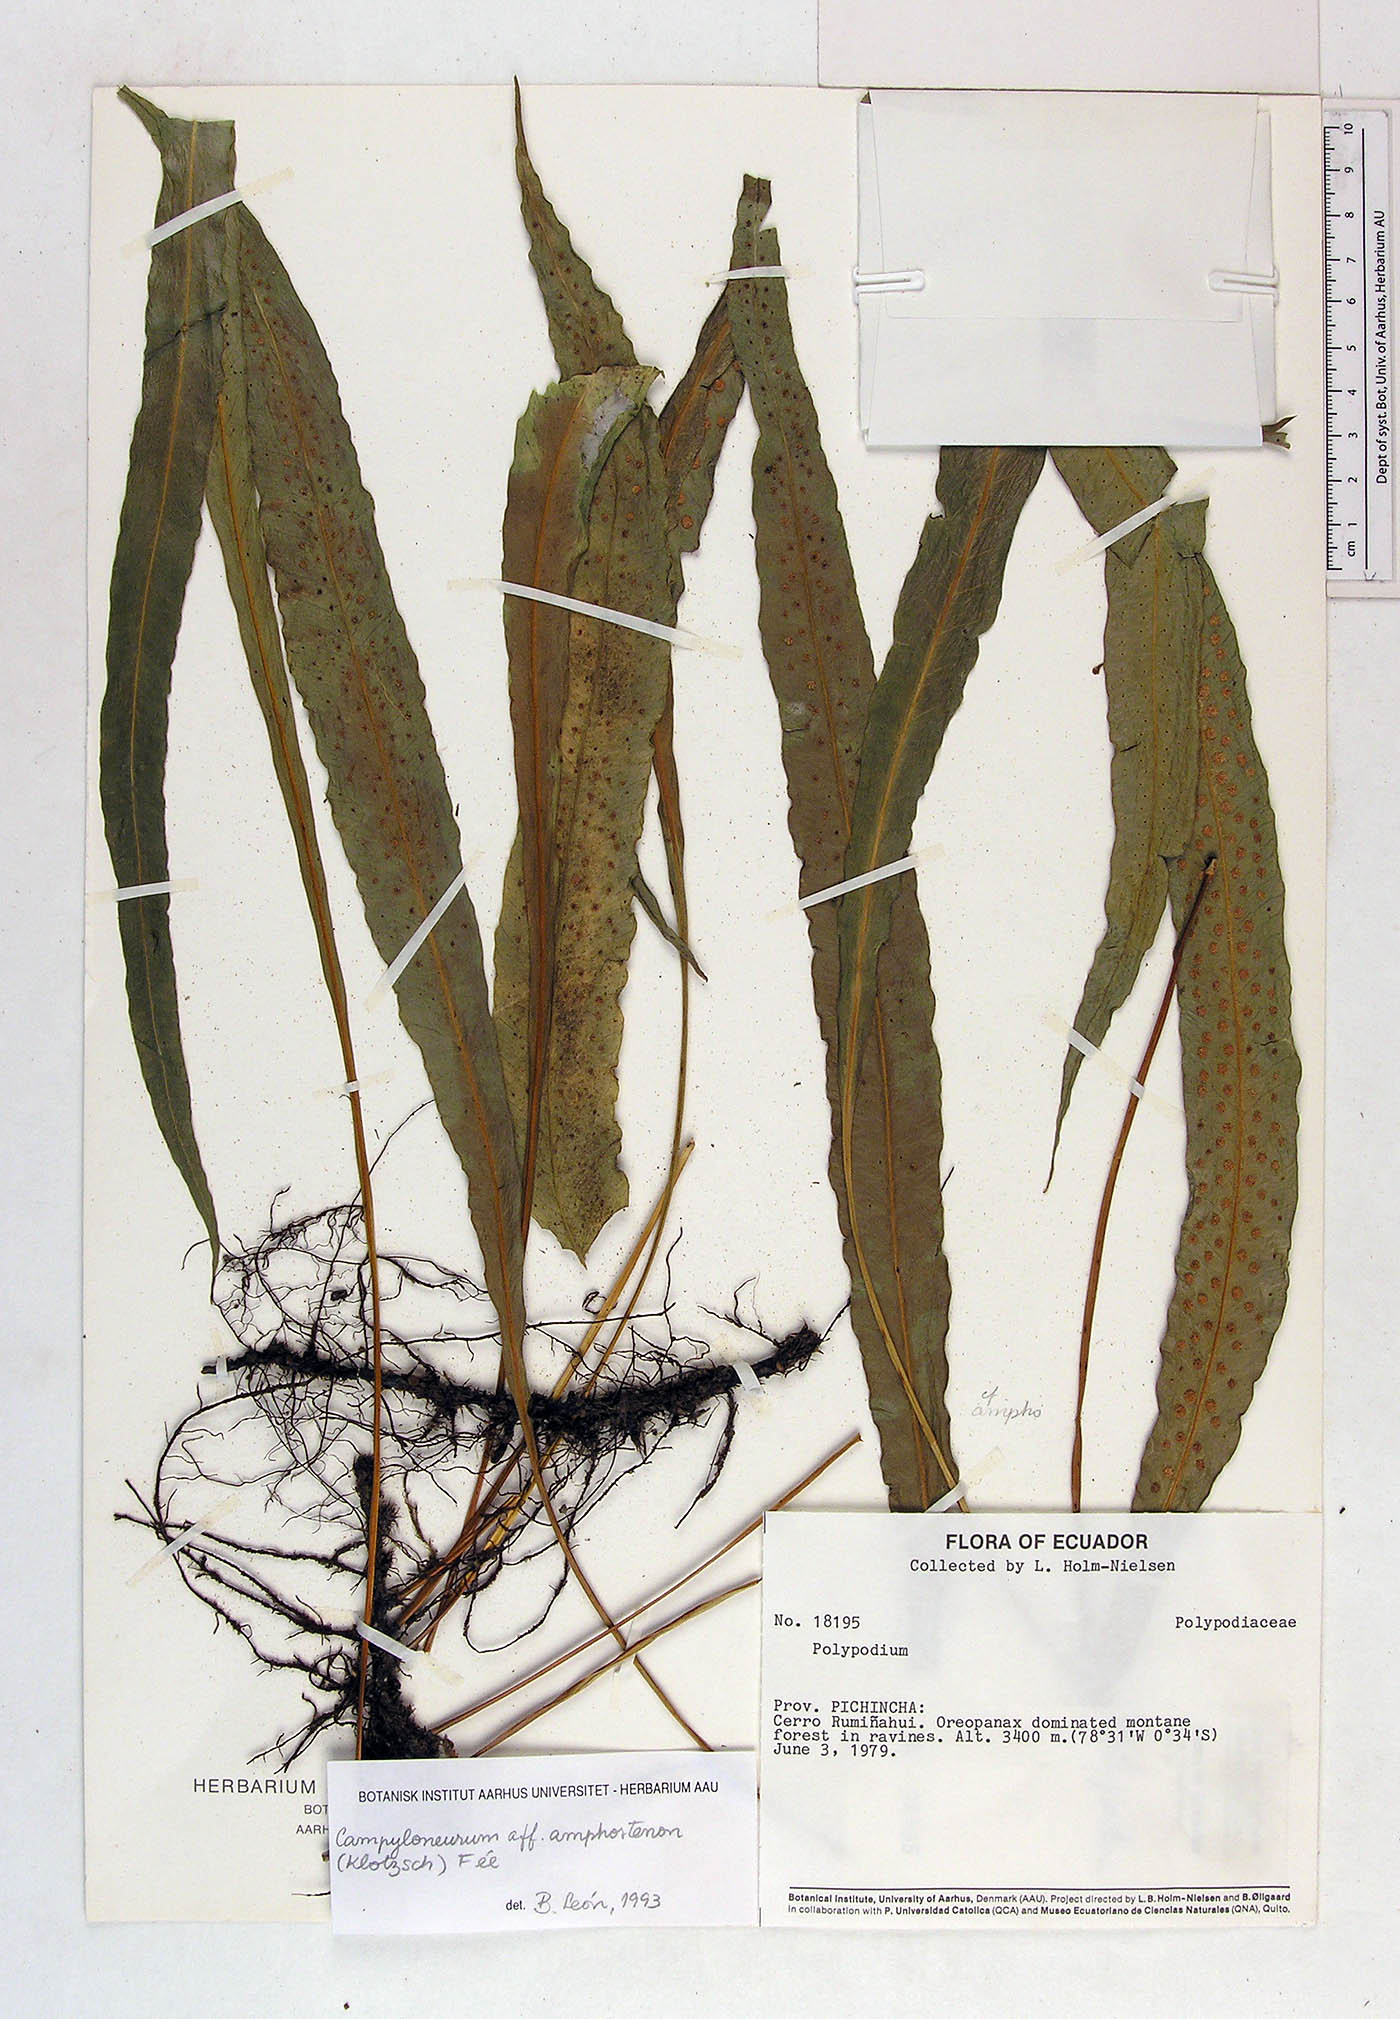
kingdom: Plantae
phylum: Tracheophyta
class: Polypodiopsida
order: Polypodiales
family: Polypodiaceae
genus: Polypodium
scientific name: Polypodium
